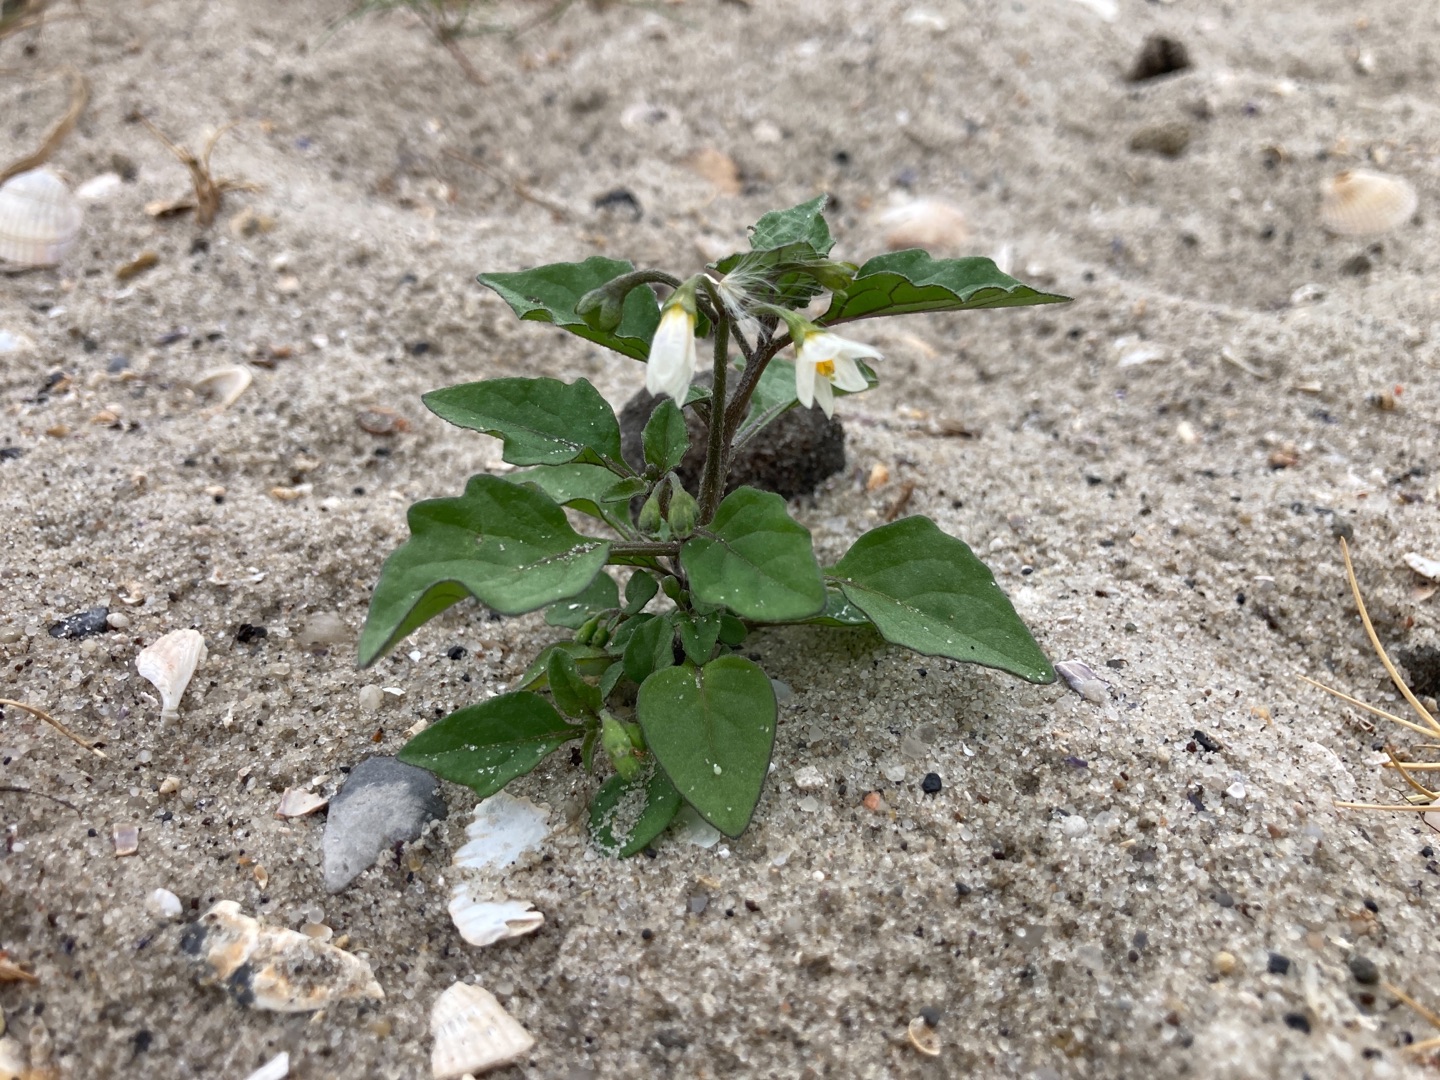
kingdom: Plantae
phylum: Tracheophyta
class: Magnoliopsida
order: Solanales
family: Solanaceae
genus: Solanum
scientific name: Solanum nigrum
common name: Sort natskygge
